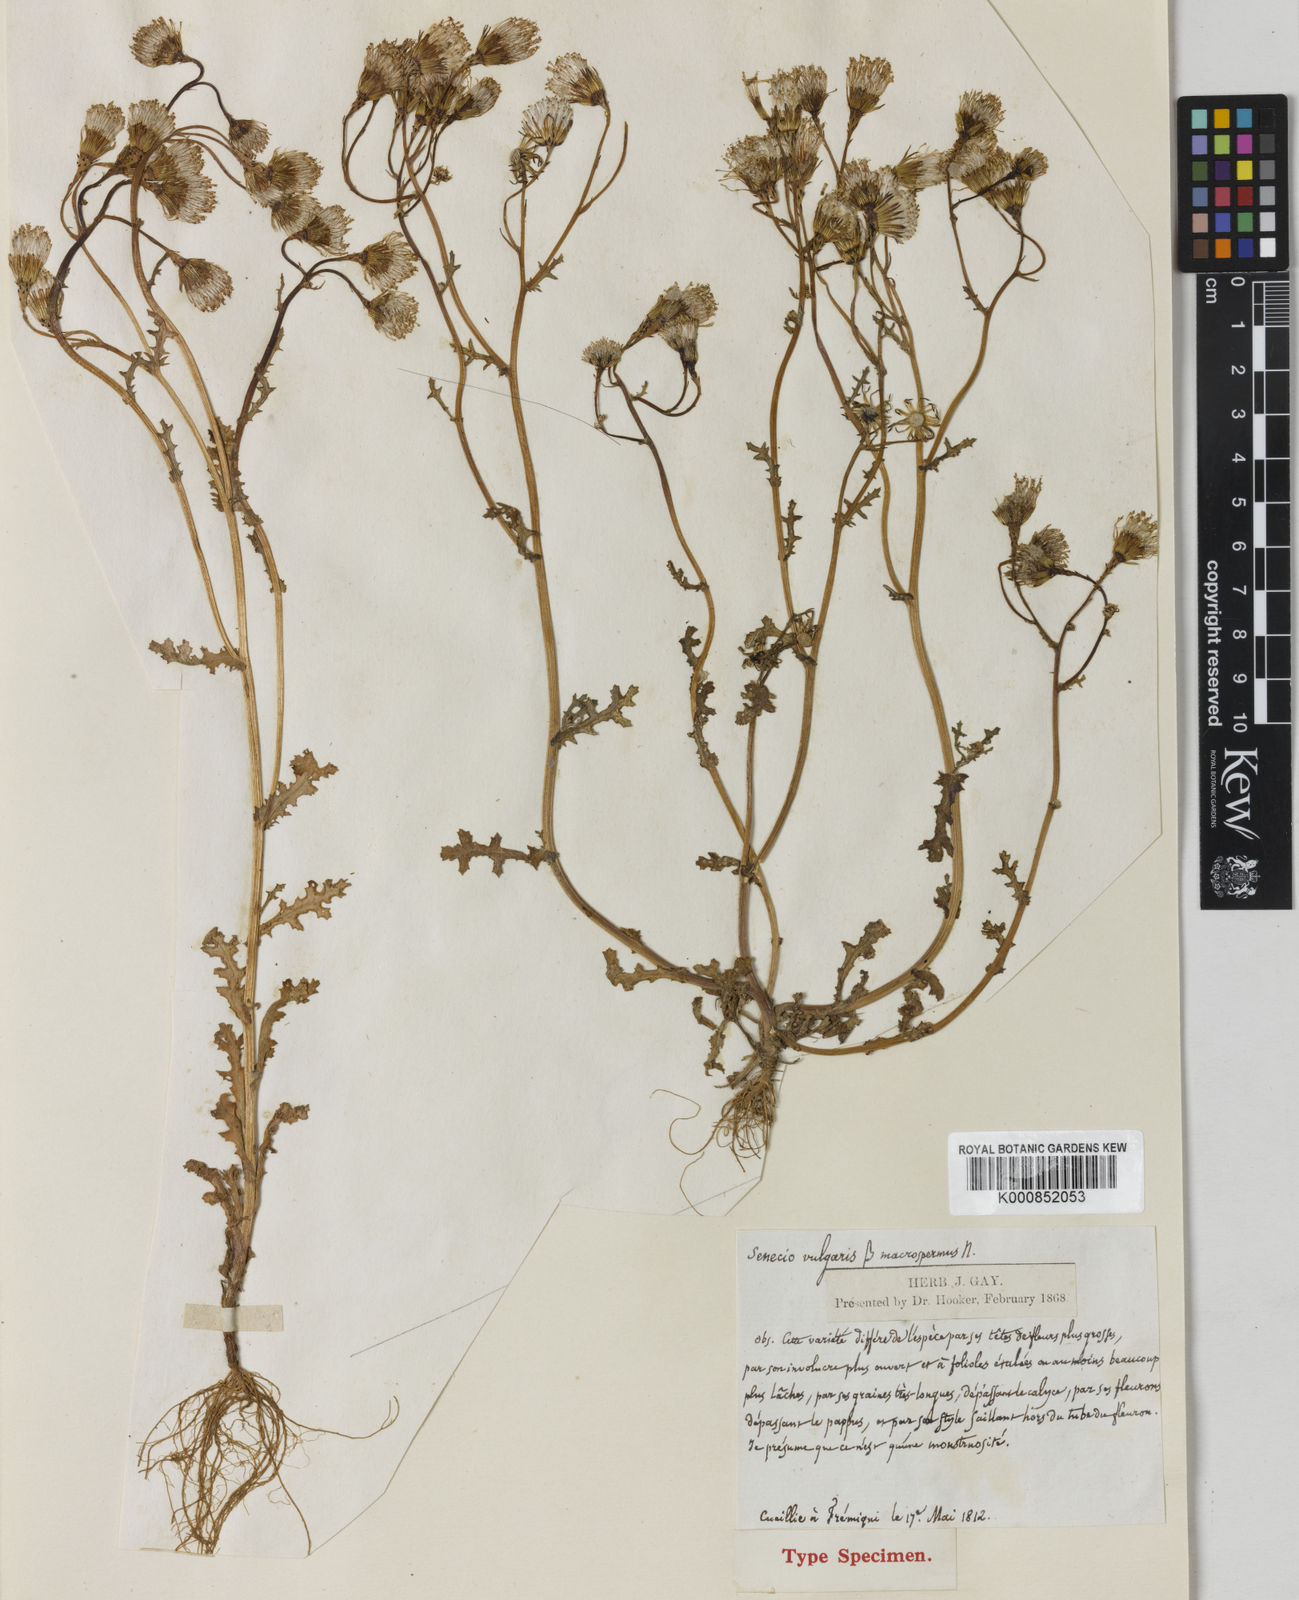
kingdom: Plantae
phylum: Tracheophyta
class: Magnoliopsida
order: Asterales
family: Asteraceae
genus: Senecio
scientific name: Senecio vulgaris
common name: Old-man-in-the-spring
